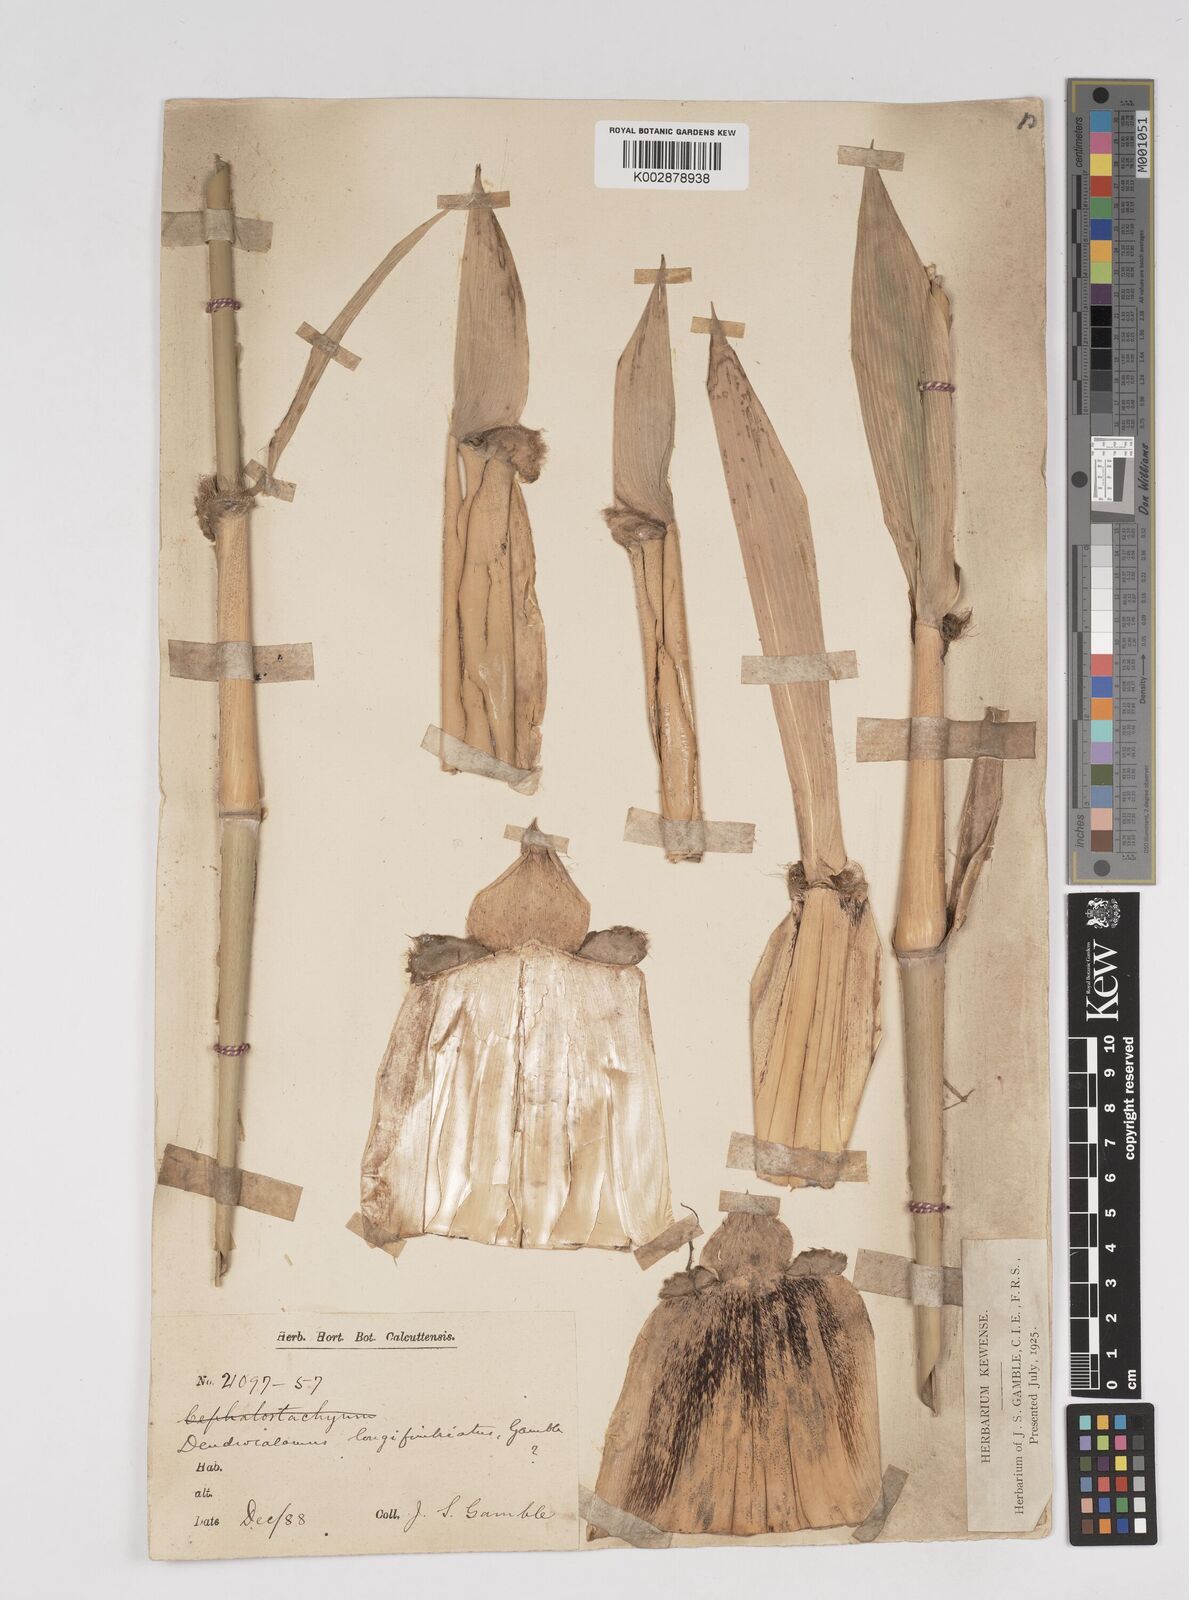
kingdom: Plantae
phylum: Tracheophyta
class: Liliopsida
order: Poales
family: Poaceae
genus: Dendrocalamus
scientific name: Dendrocalamus membranaceus
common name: White bamboo
